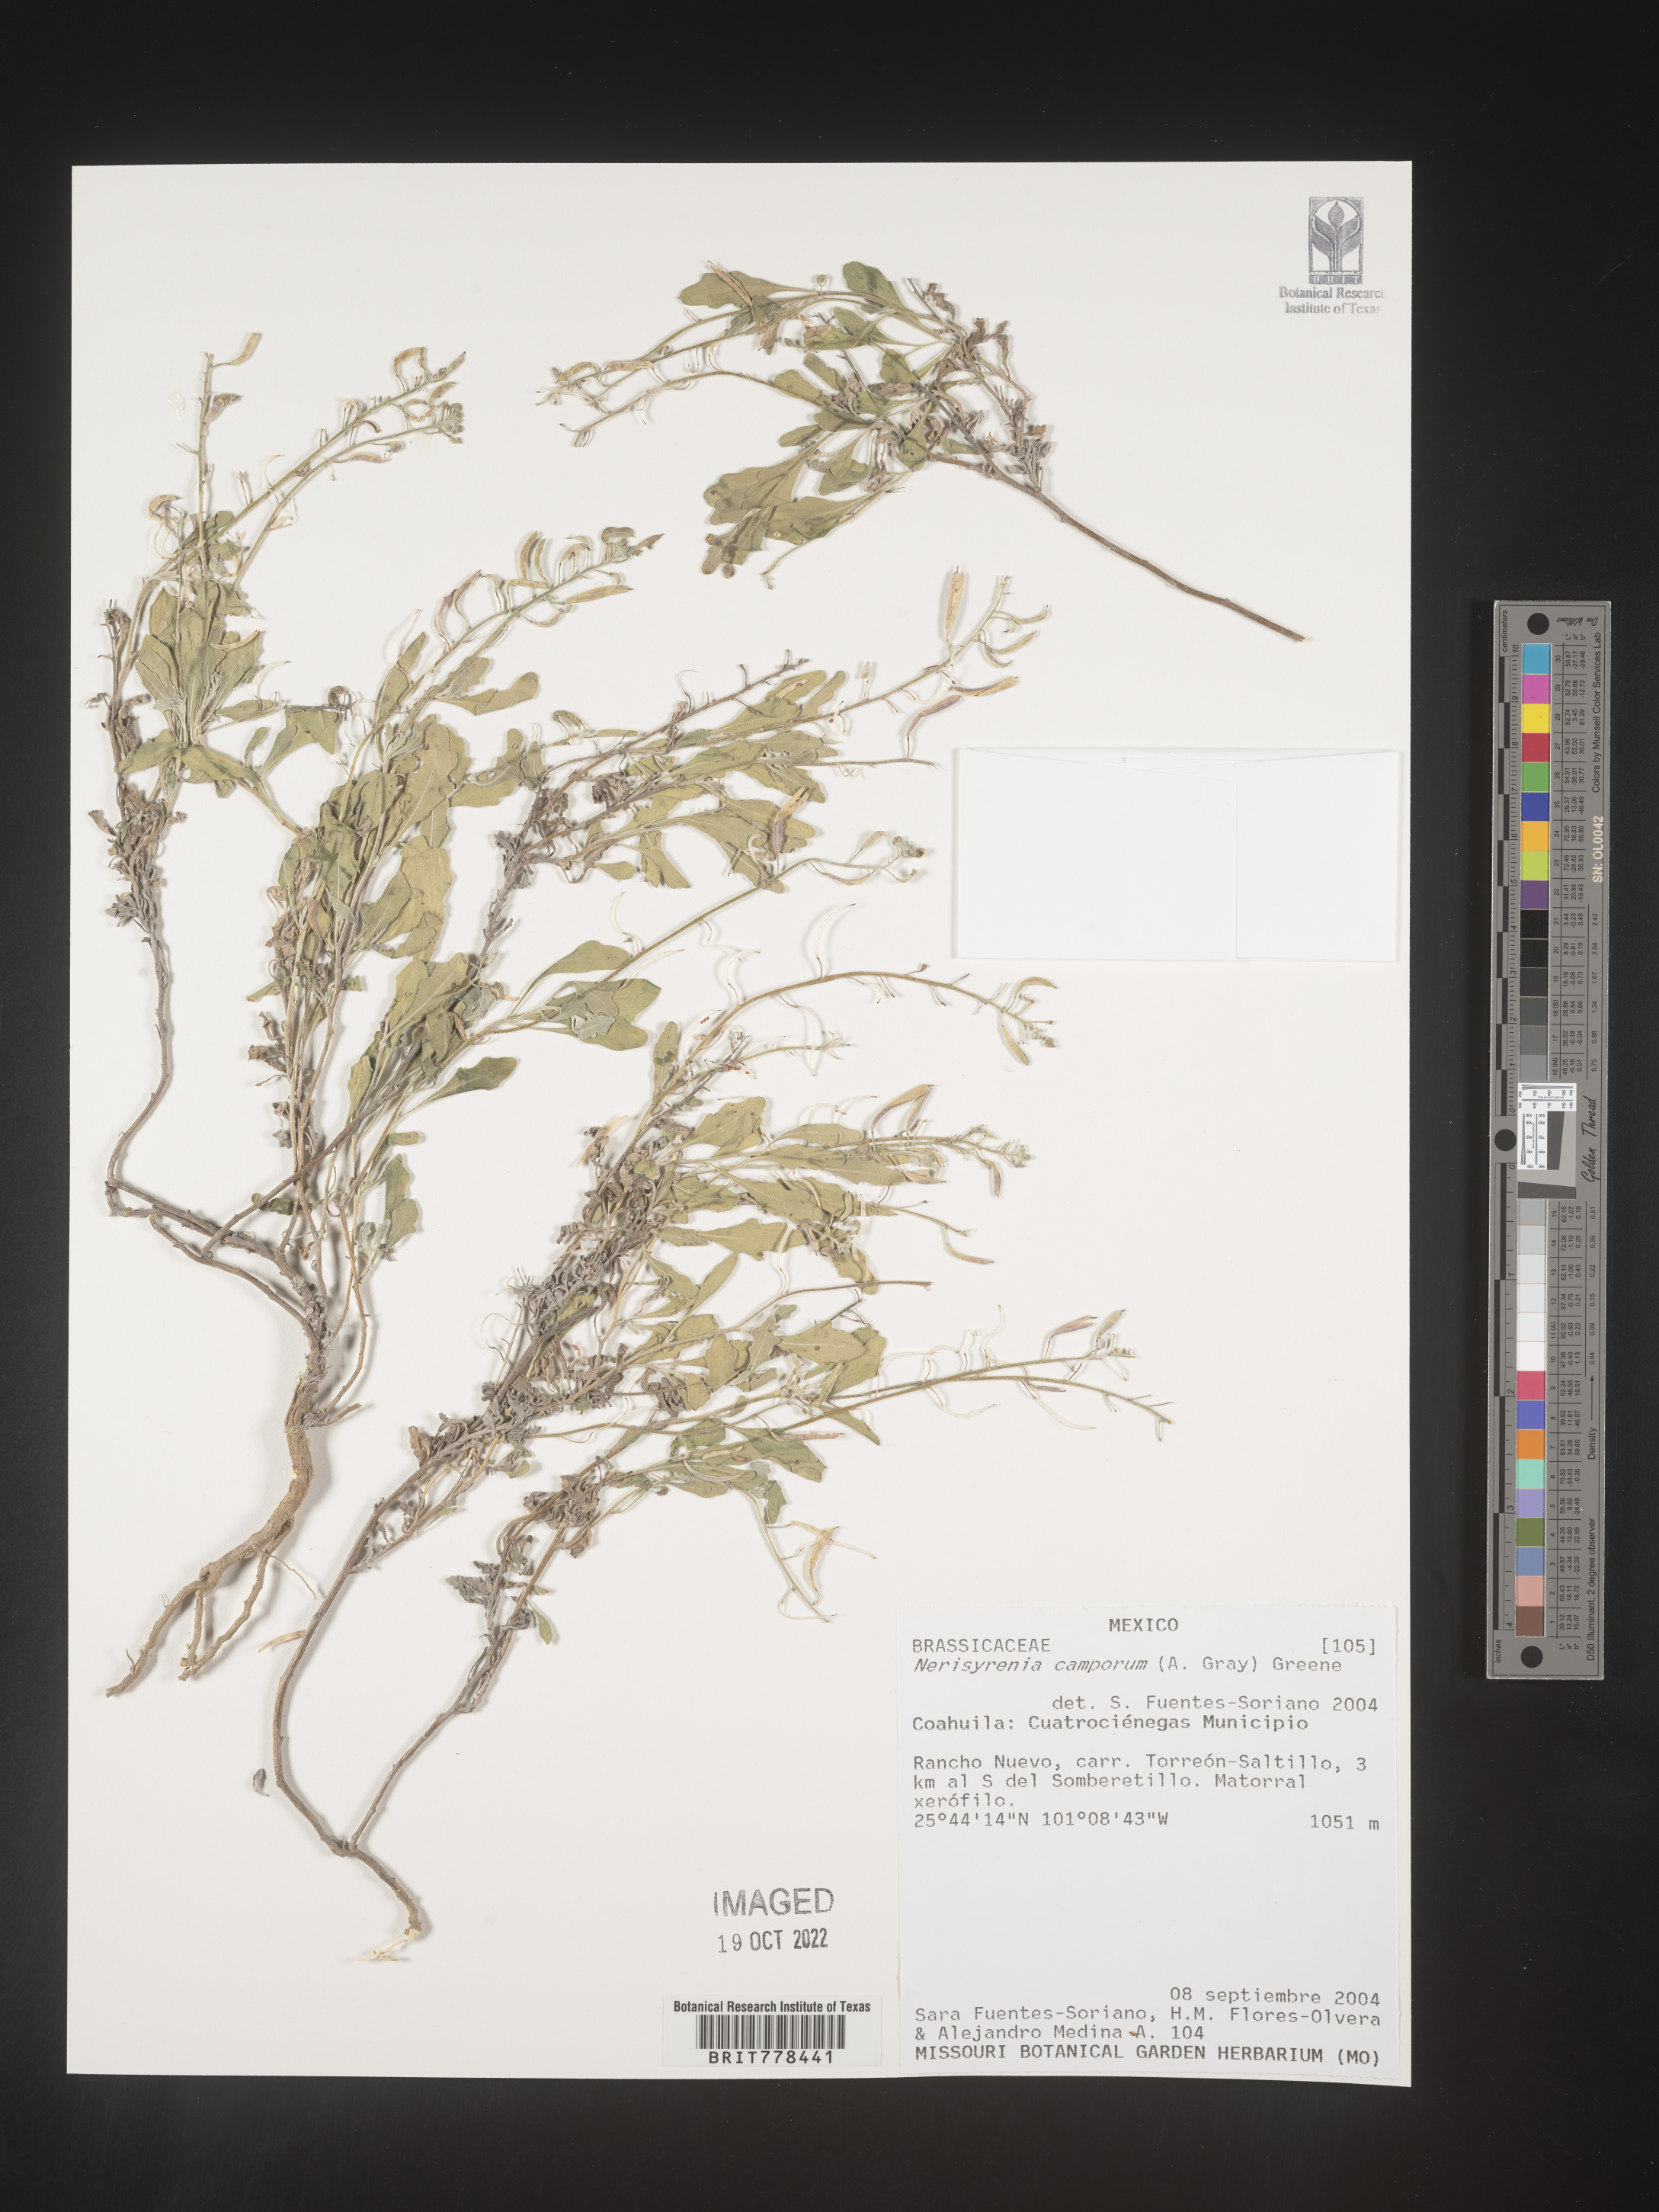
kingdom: Plantae
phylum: Tracheophyta
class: Magnoliopsida
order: Brassicales
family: Brassicaceae
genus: Nerisyrenia
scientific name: Nerisyrenia
